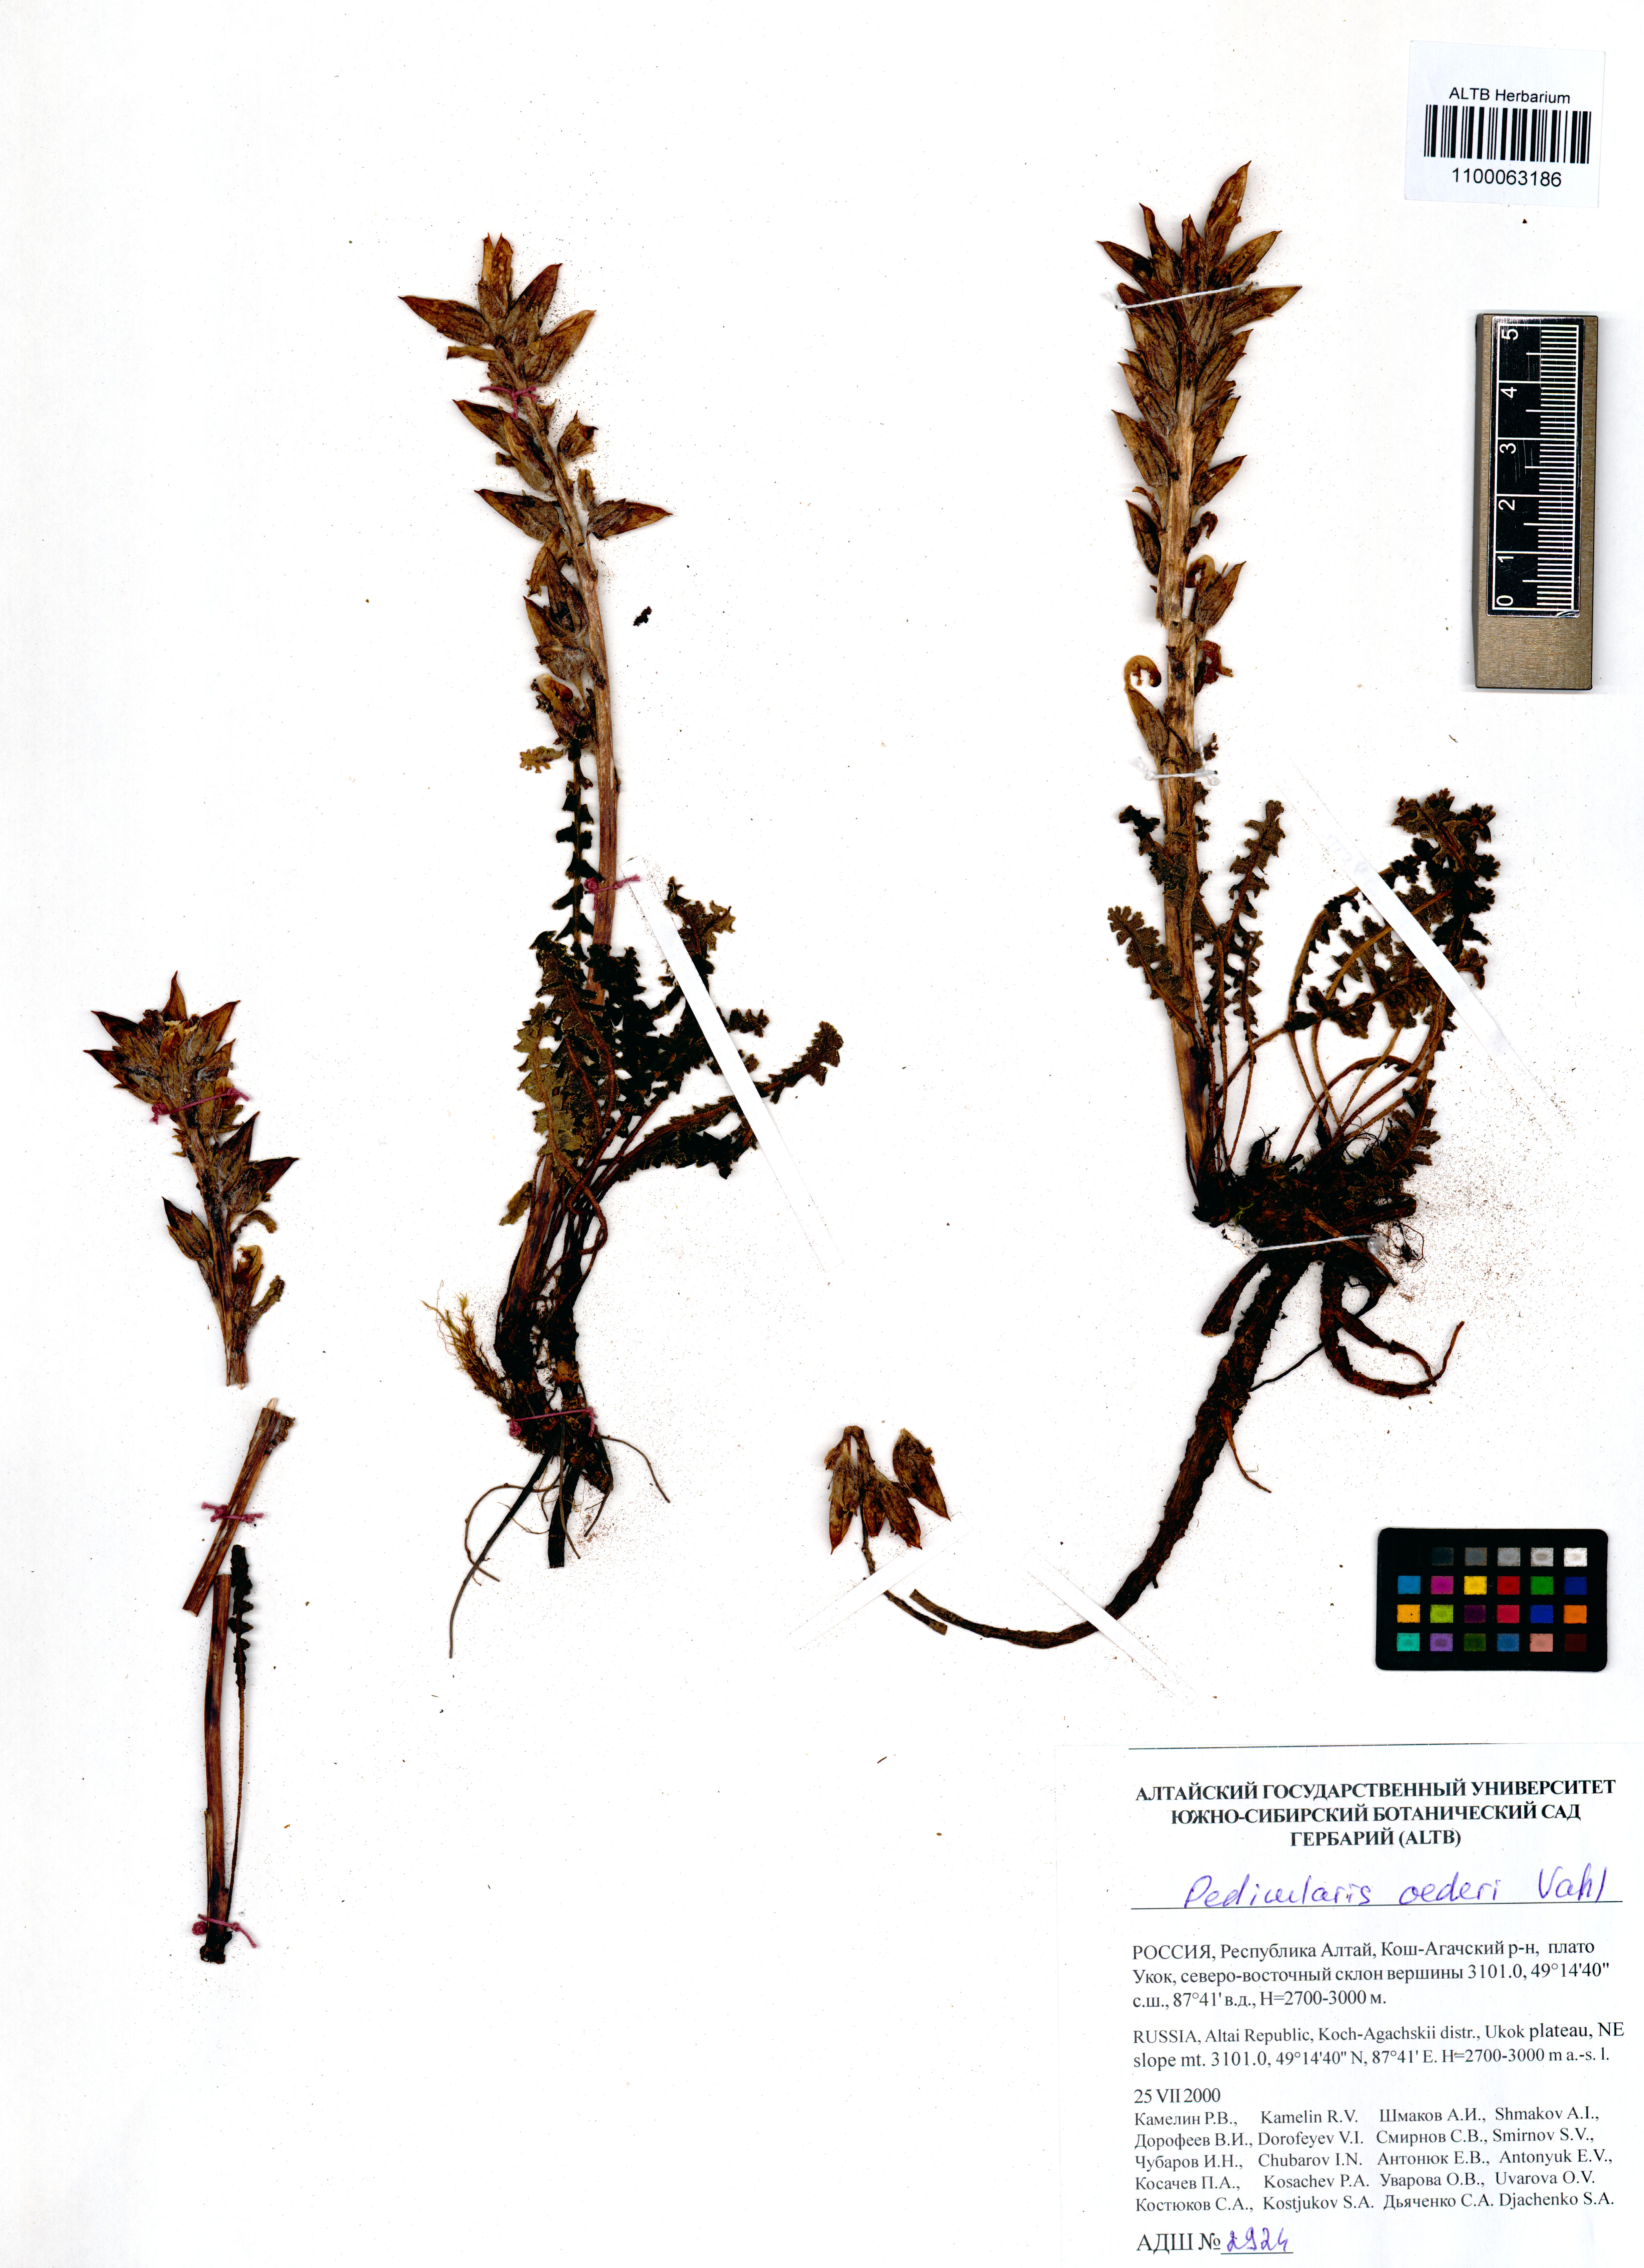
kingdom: Plantae
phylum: Tracheophyta
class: Magnoliopsida
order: Lamiales
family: Orobanchaceae
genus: Pedicularis
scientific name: Pedicularis oederi
